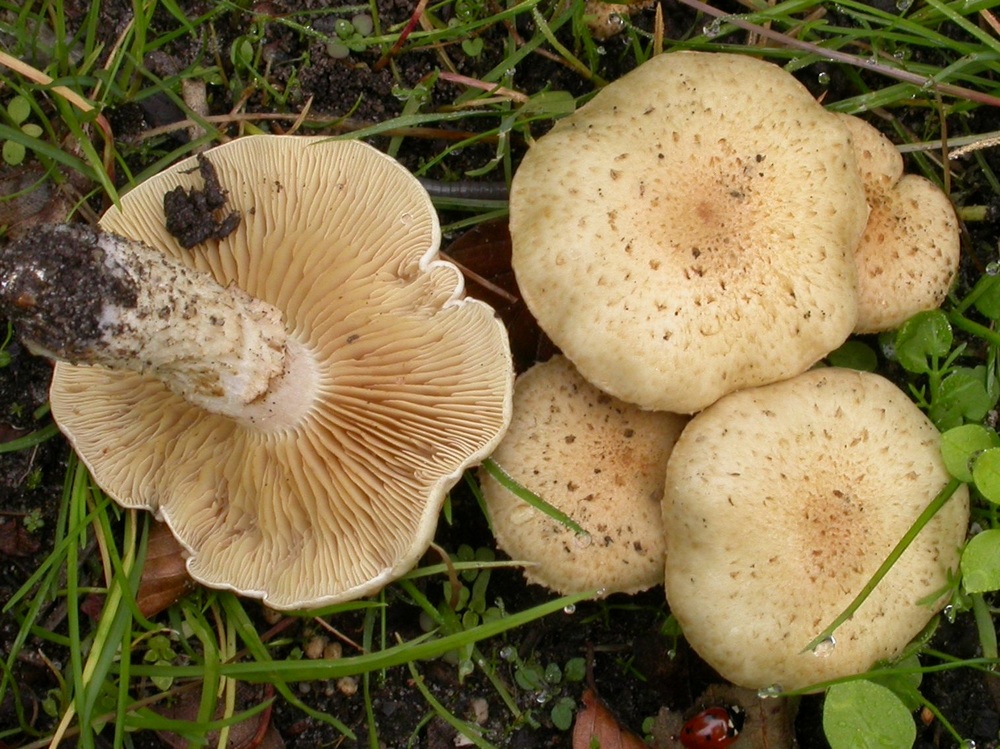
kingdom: Fungi
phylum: Basidiomycota
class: Agaricomycetes
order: Agaricales
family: Strophariaceae
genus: Pholiota
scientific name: Pholiota gummosa
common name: grøngul skælhat
